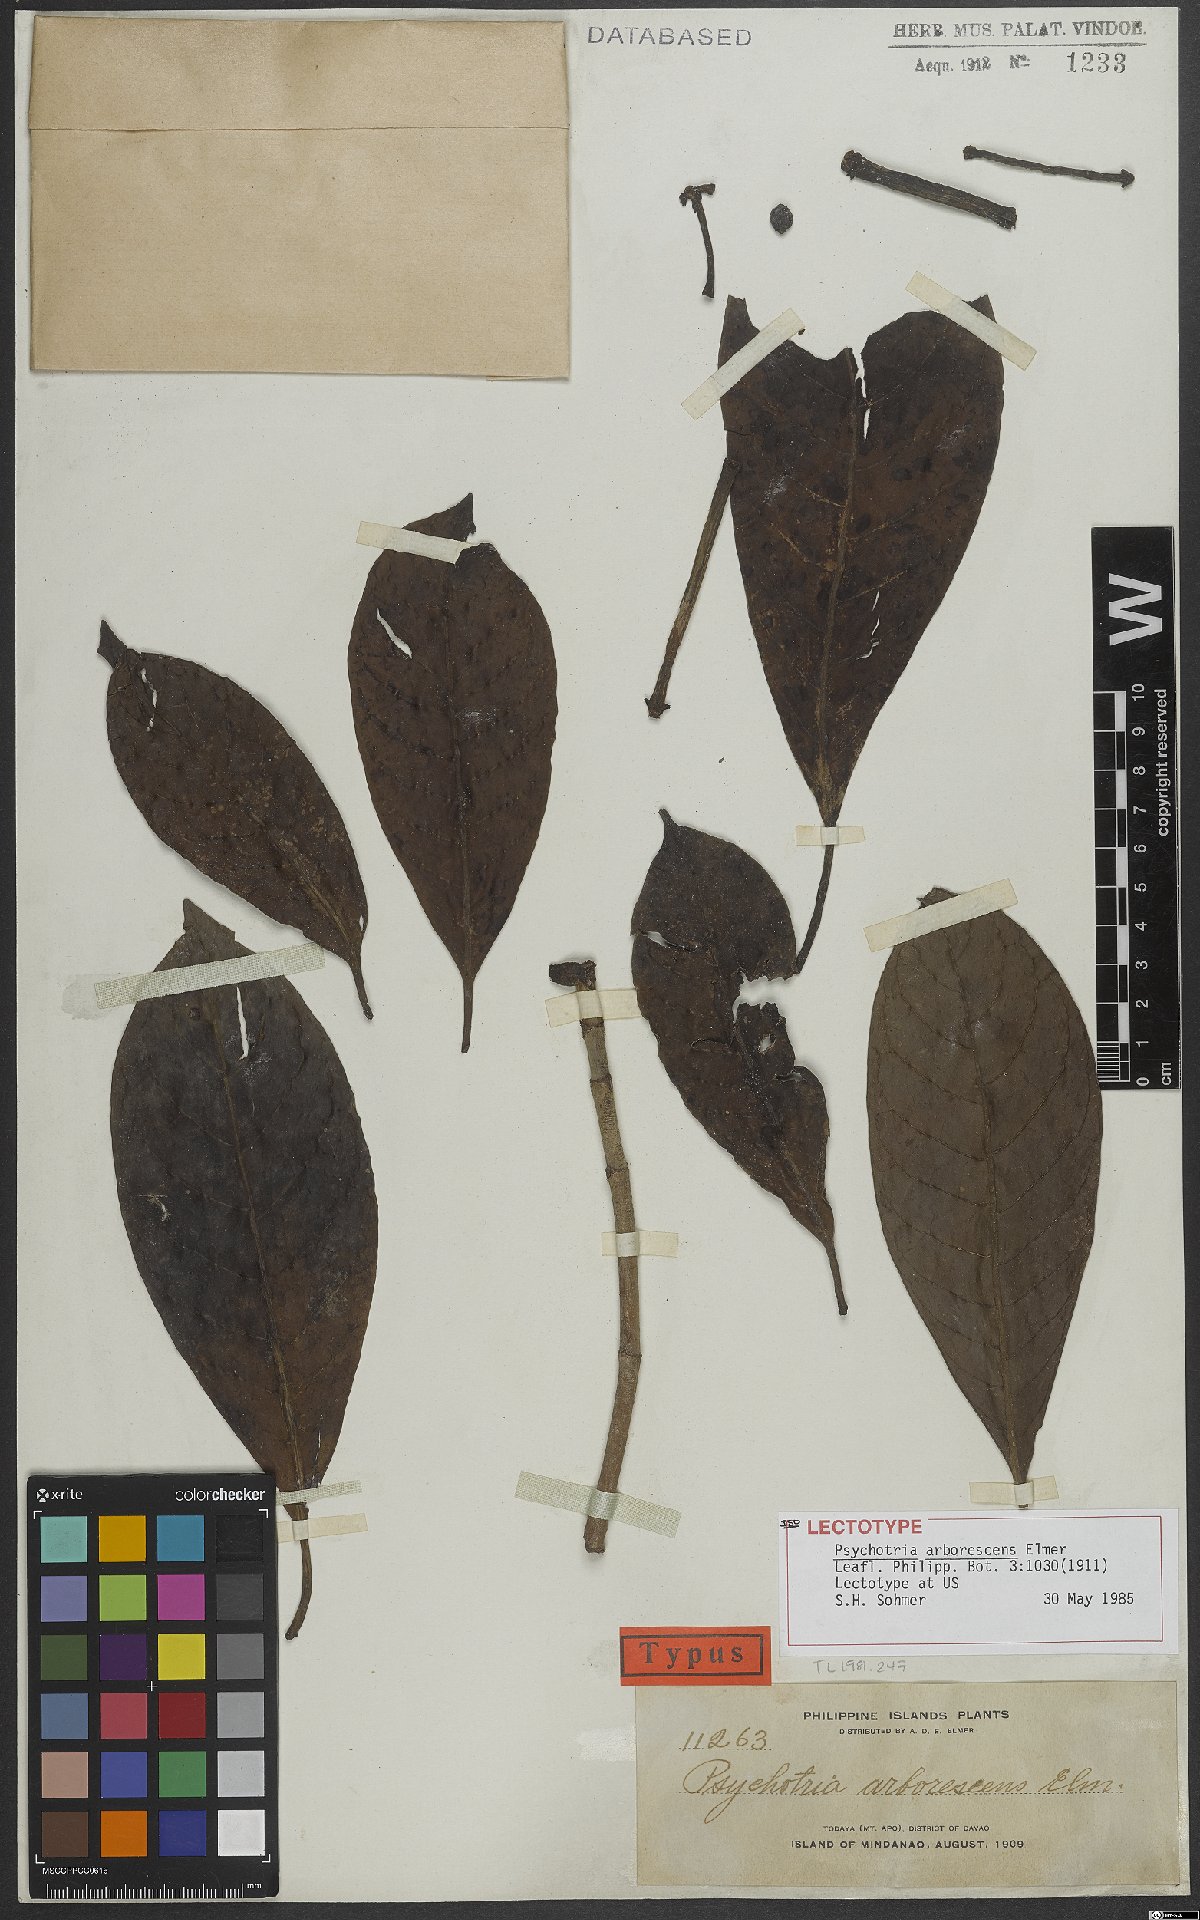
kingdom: Plantae
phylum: Tracheophyta
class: Magnoliopsida
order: Gentianales
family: Rubiaceae
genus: Psychotria
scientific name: Psychotria arborescens
